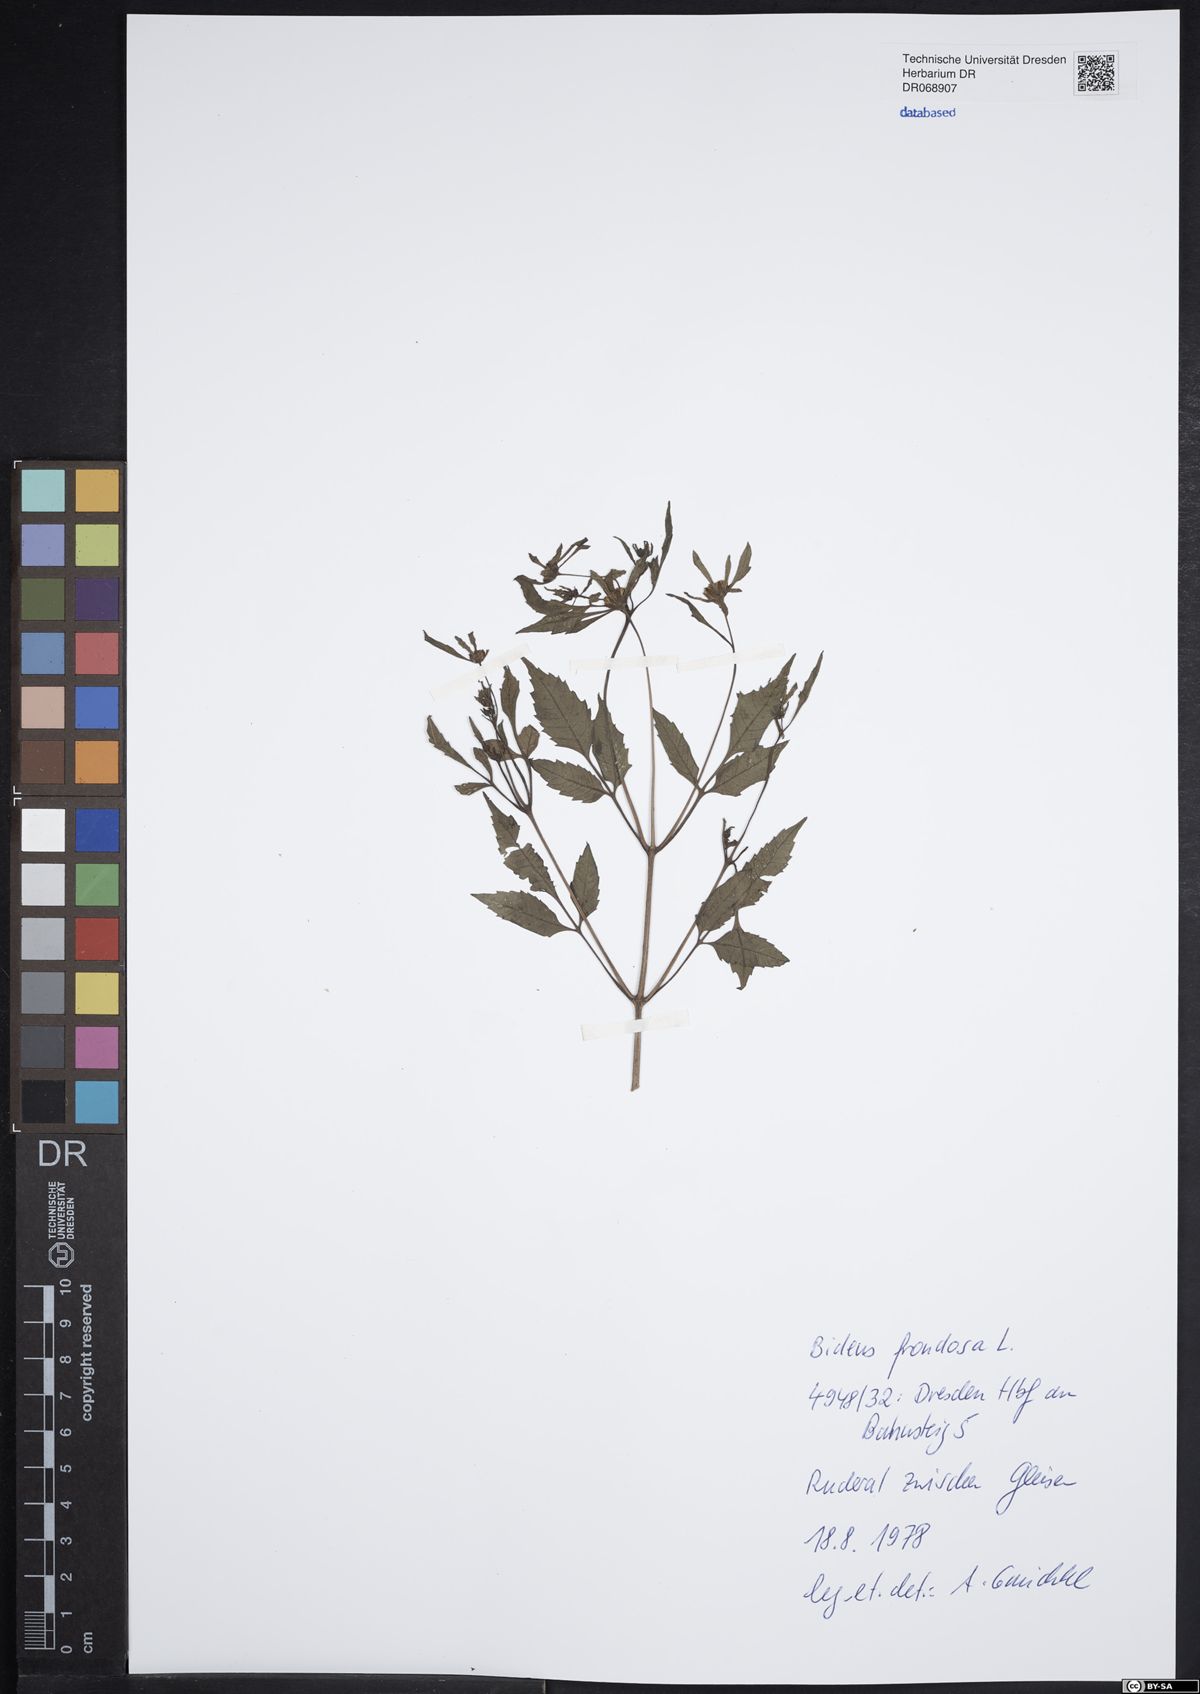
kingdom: Plantae
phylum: Tracheophyta
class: Magnoliopsida
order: Asterales
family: Asteraceae
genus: Bidens
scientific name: Bidens frondosa
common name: Beggarticks
